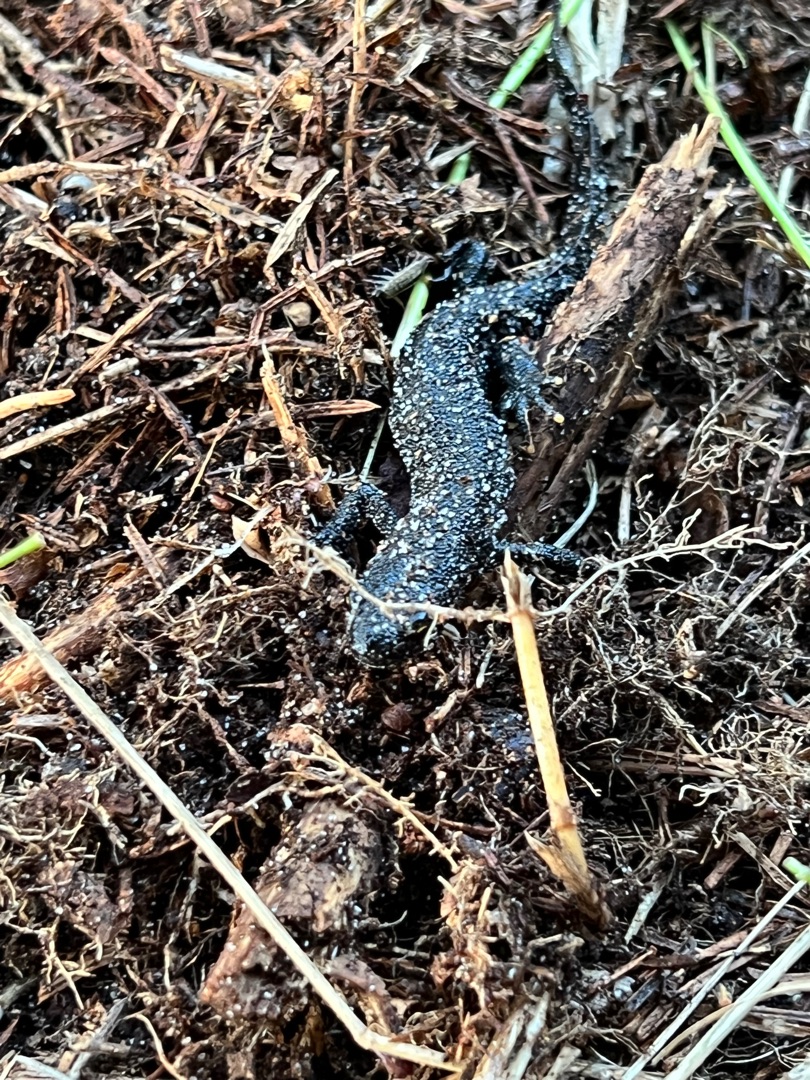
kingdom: Animalia
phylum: Chordata
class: Amphibia
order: Caudata
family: Salamandridae
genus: Triturus
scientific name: Triturus cristatus
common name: Stor vandsalamander
